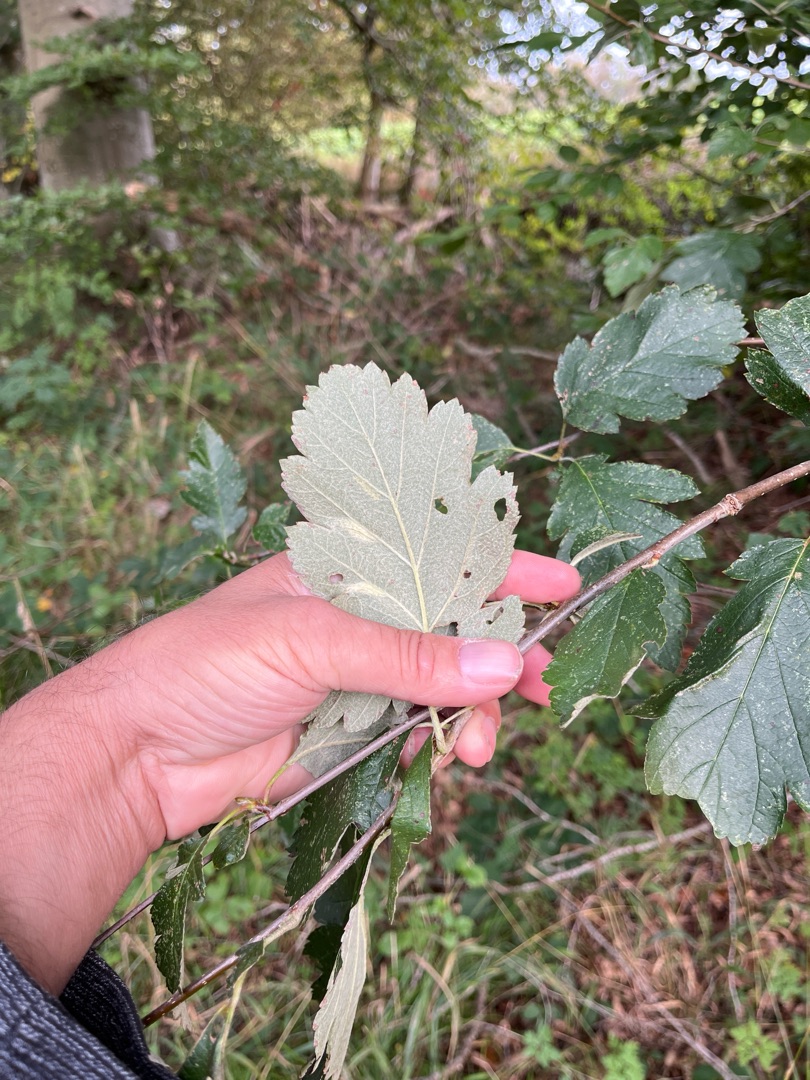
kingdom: Plantae
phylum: Tracheophyta
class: Magnoliopsida
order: Rosales
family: Rosaceae
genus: Scandosorbus
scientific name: Scandosorbus intermedia
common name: Selje-røn
